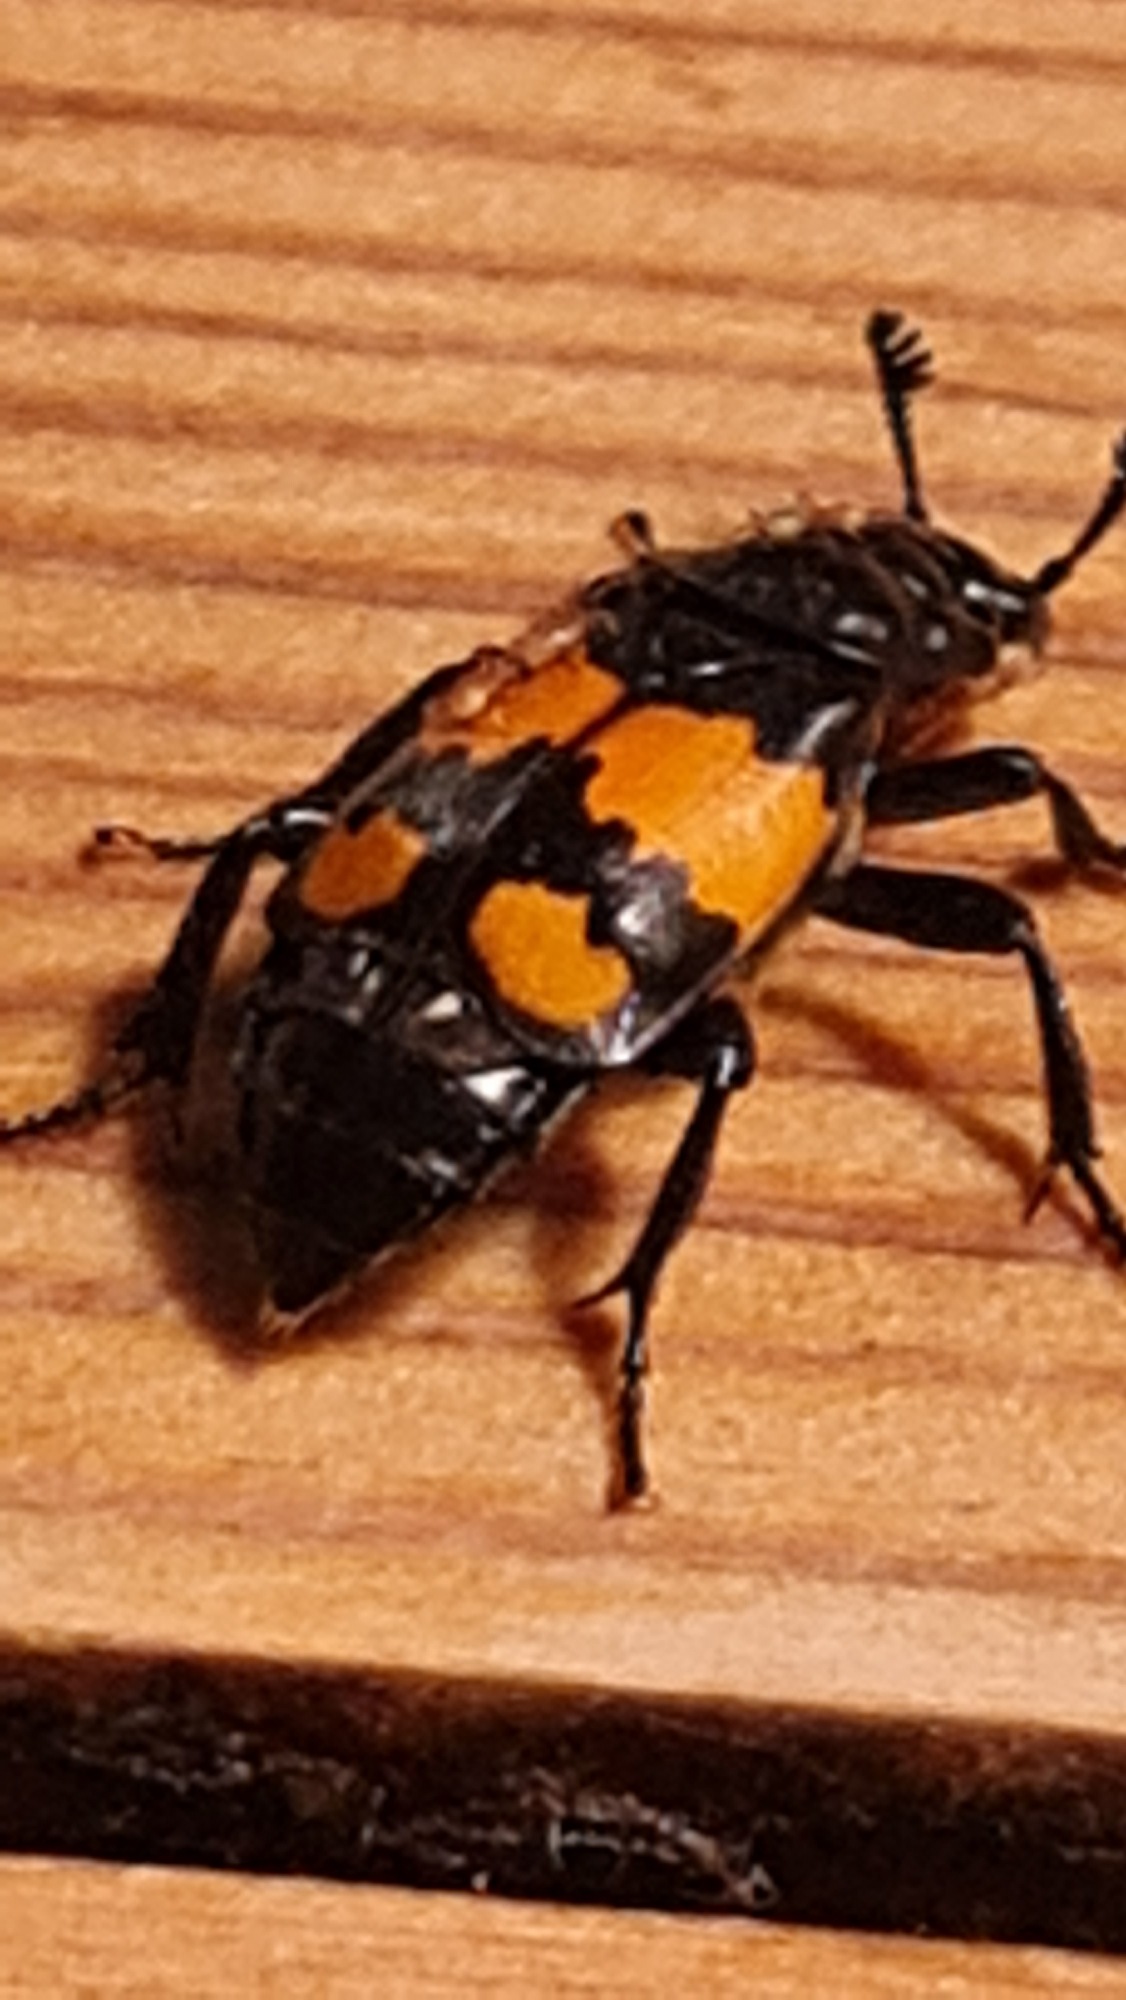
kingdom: Animalia
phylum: Arthropoda
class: Insecta
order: Coleoptera
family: Staphylinidae
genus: Nicrophorus
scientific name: Nicrophorus vespilloides
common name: Sortkøllet ådselgraver
